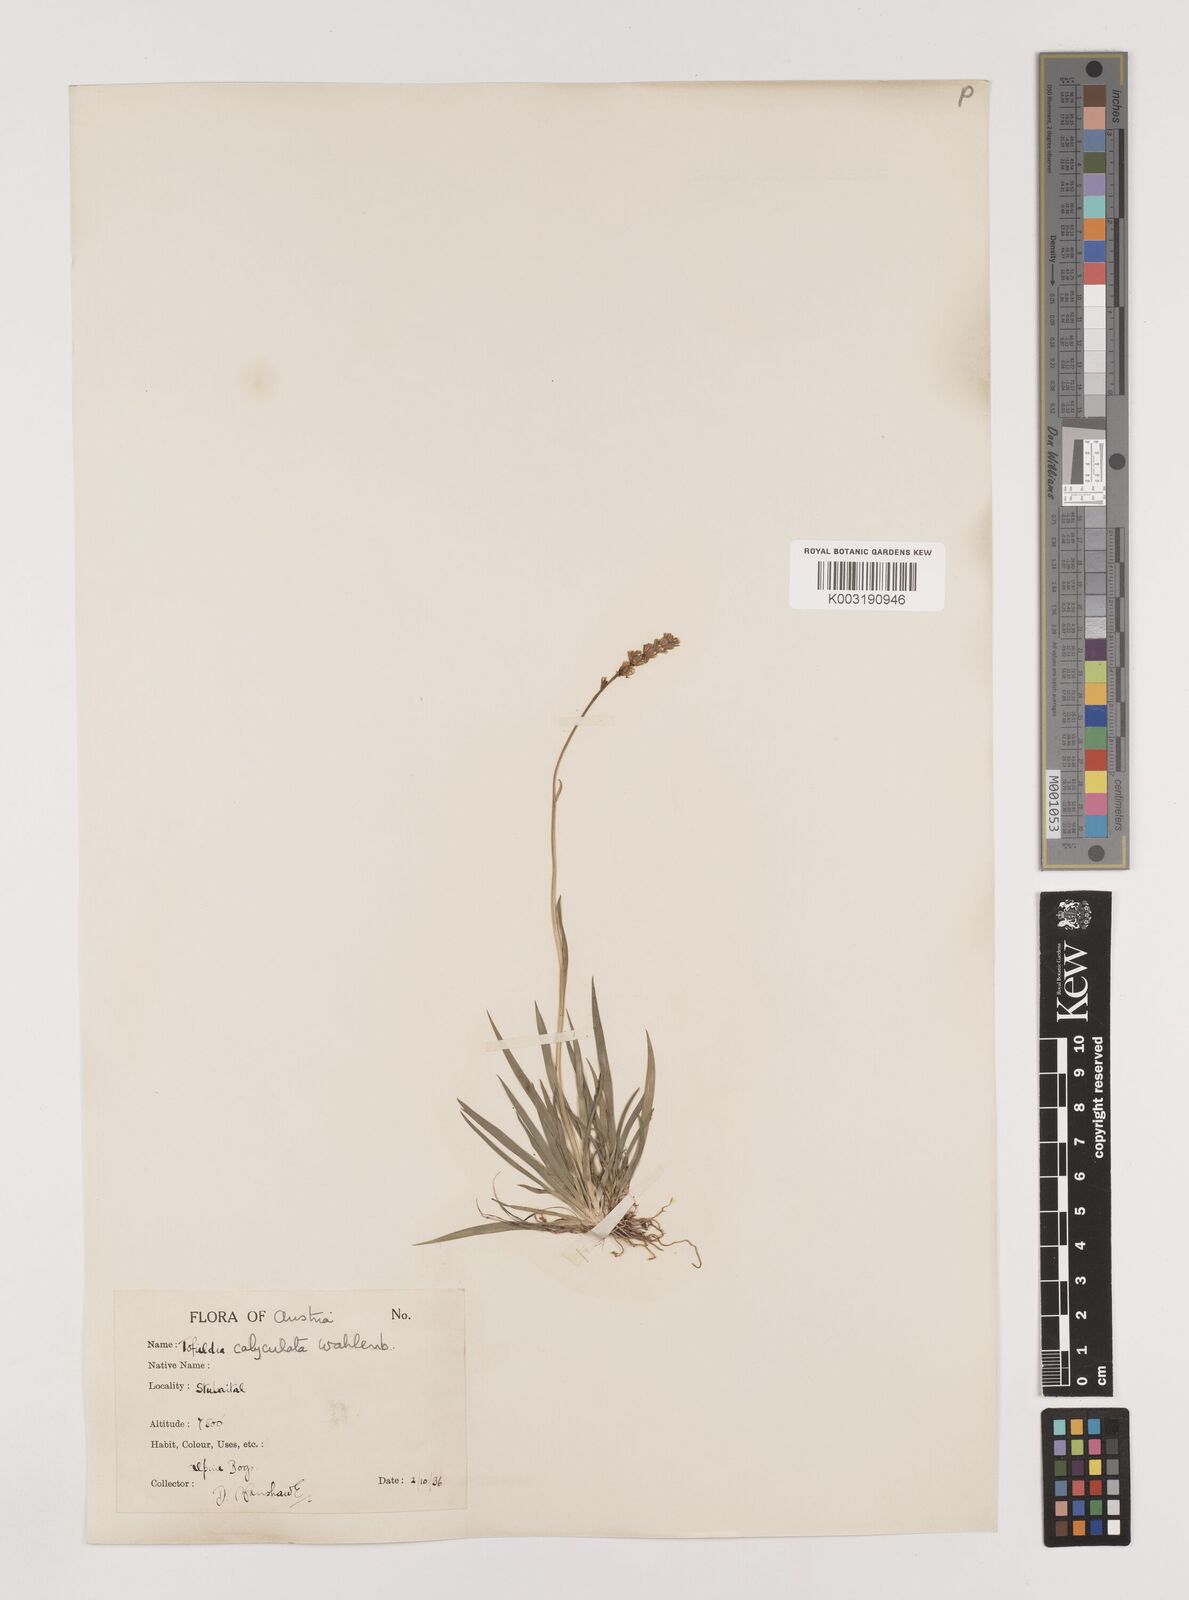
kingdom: Plantae
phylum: Tracheophyta
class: Liliopsida
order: Alismatales
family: Tofieldiaceae
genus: Tofieldia
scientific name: Tofieldia calyculata
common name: German-asphodel
